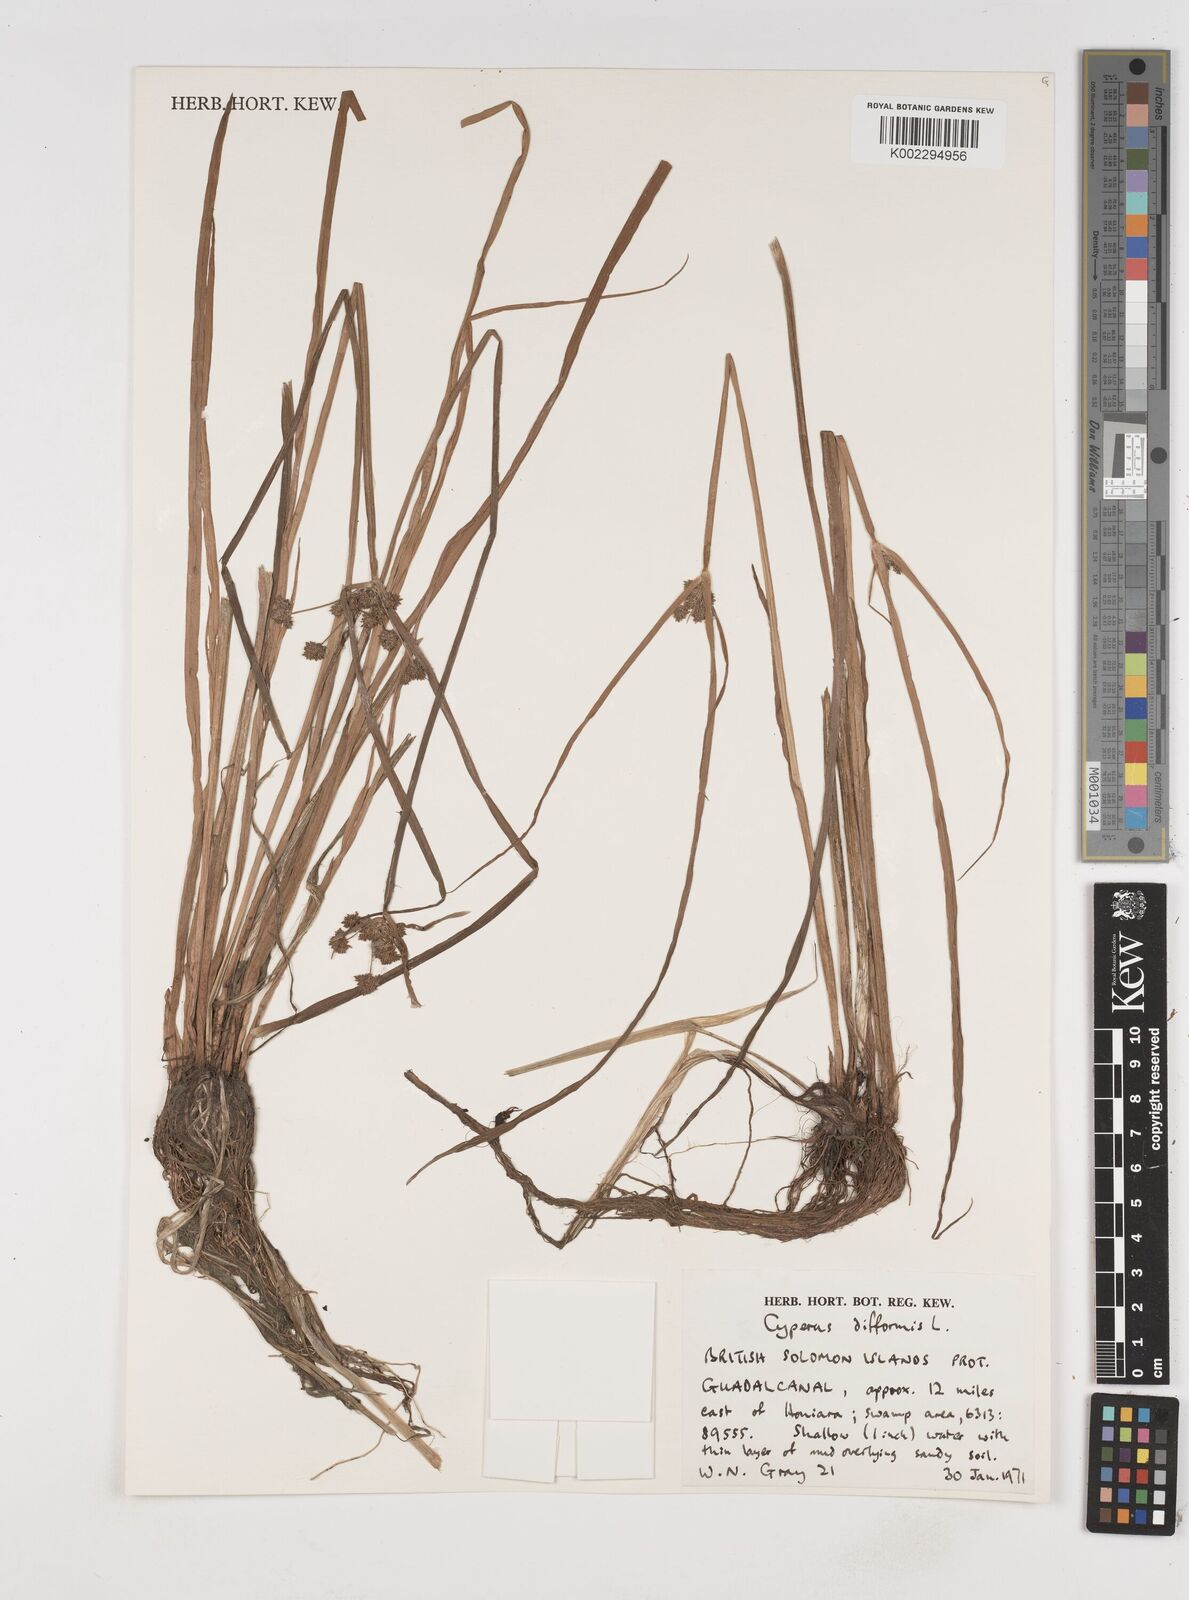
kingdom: Plantae
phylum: Tracheophyta
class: Liliopsida
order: Poales
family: Cyperaceae
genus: Cyperus
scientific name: Cyperus difformis
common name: Variable flatsedge
